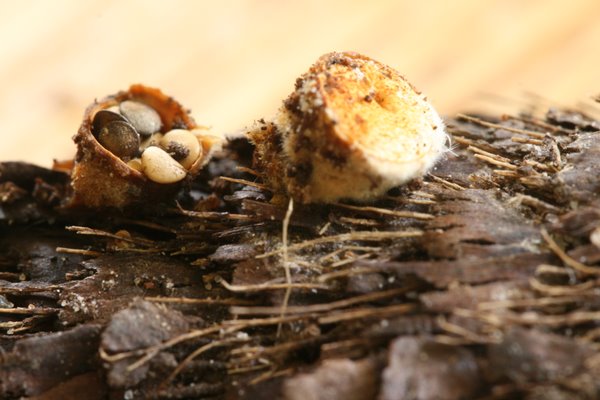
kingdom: Fungi
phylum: Basidiomycota
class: Agaricomycetes
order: Agaricales
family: Nidulariaceae
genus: Crucibulum
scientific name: Crucibulum crucibuliforme
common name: krukkesvamp
